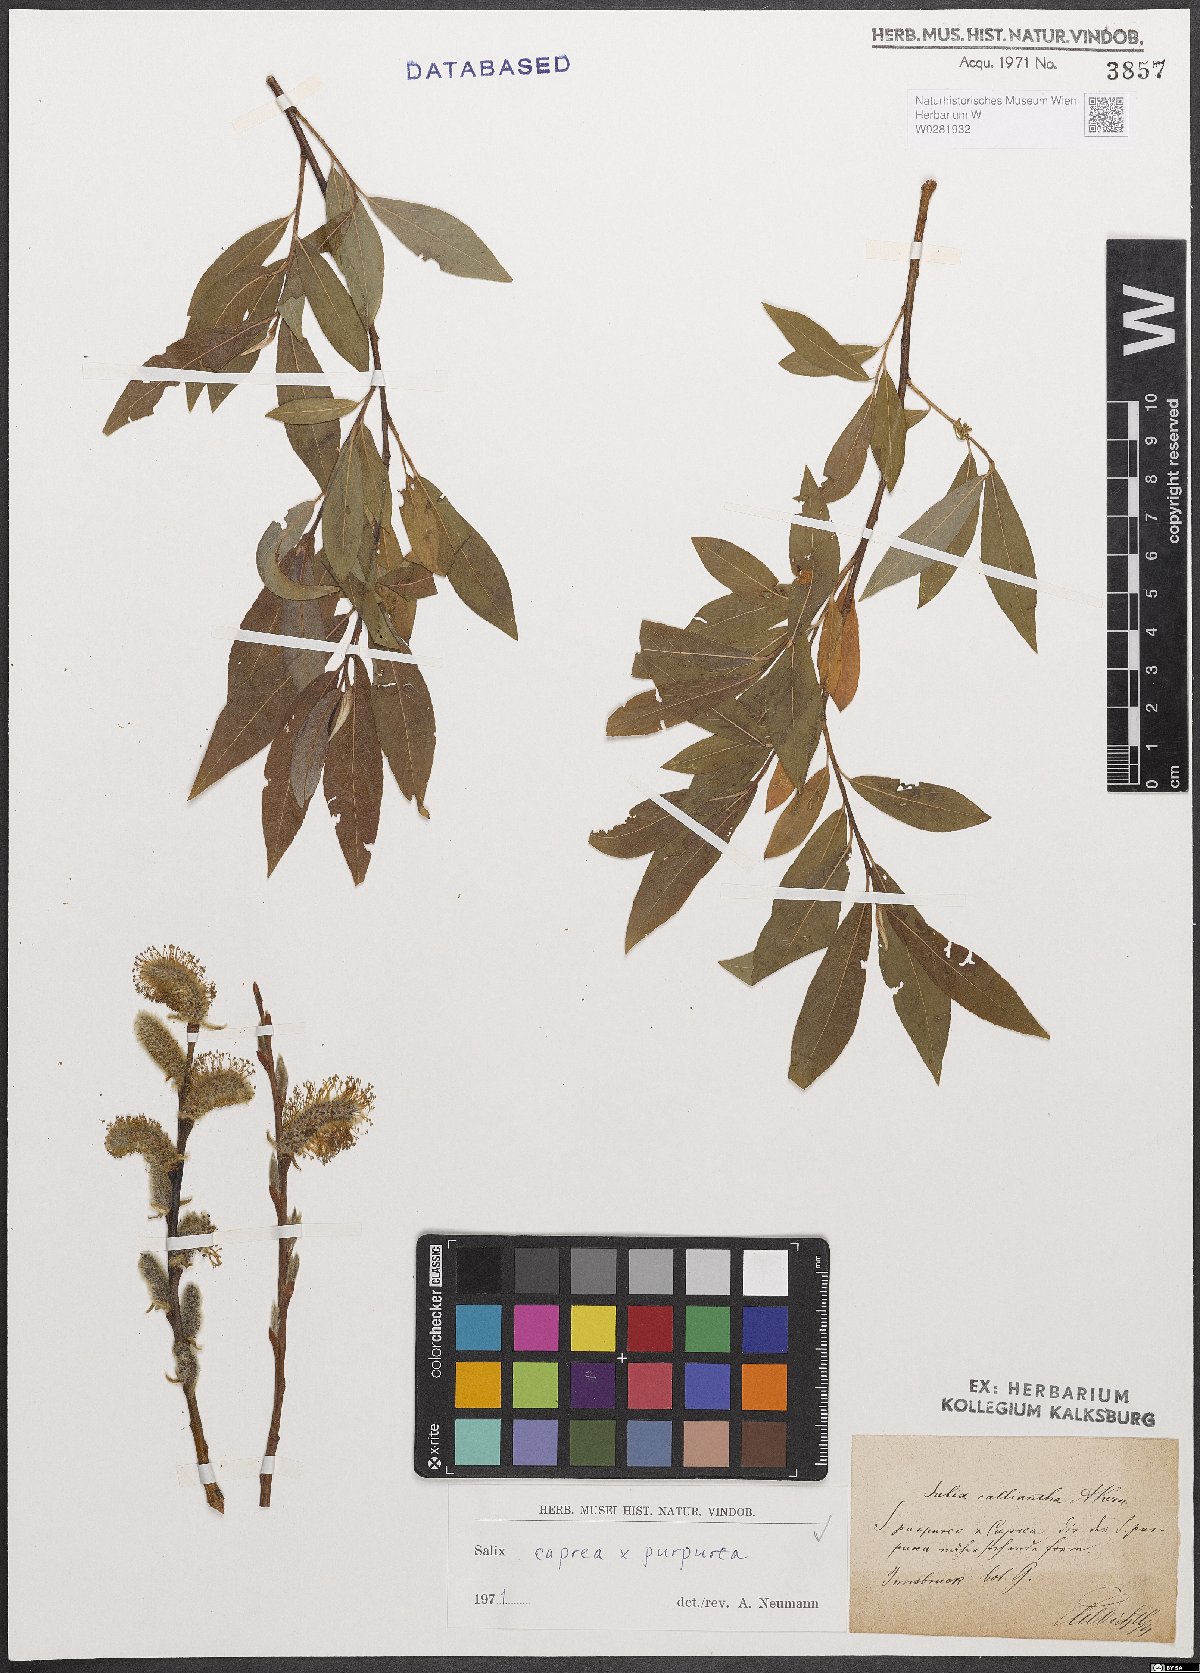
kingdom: Plantae
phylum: Tracheophyta
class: Magnoliopsida
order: Malpighiales
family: Salicaceae
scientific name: Salicaceae
